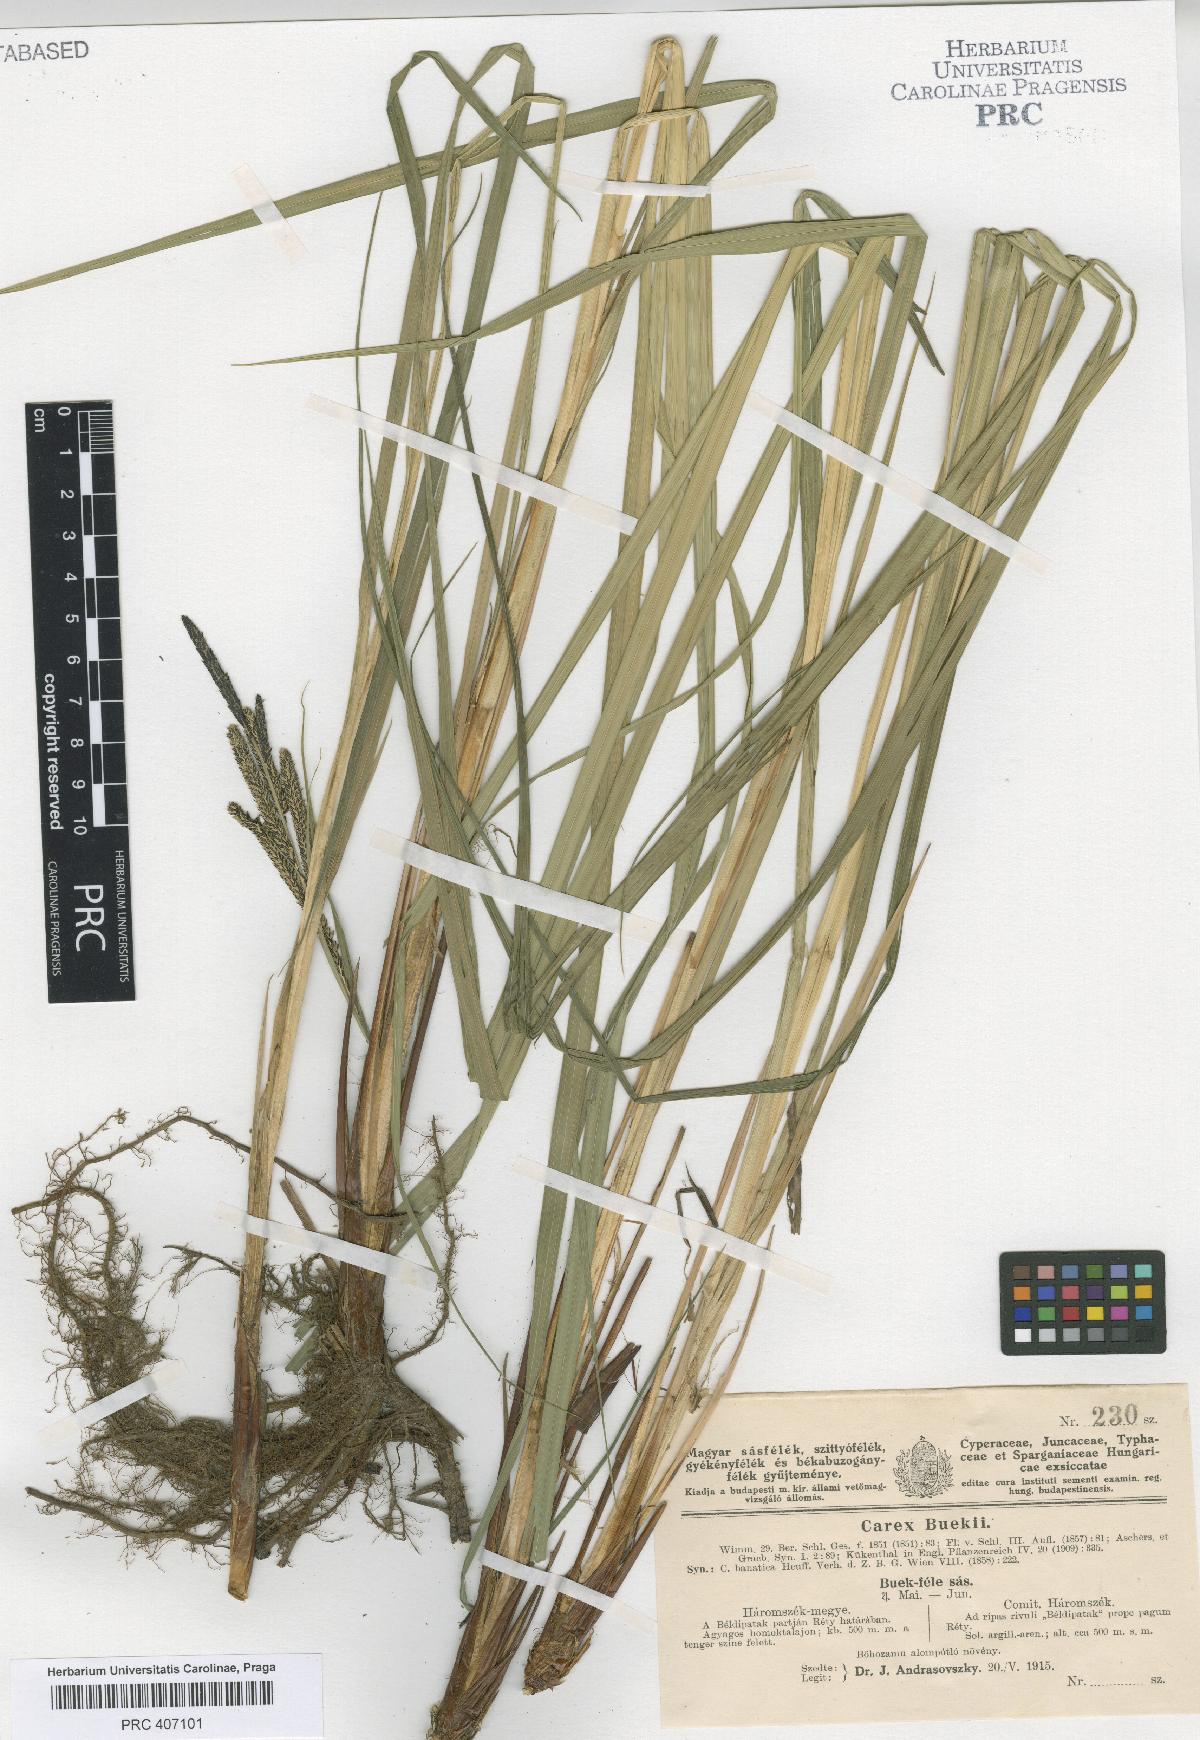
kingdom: Plantae
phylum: Tracheophyta
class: Liliopsida
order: Poales
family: Cyperaceae
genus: Carex
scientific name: Carex buekii
